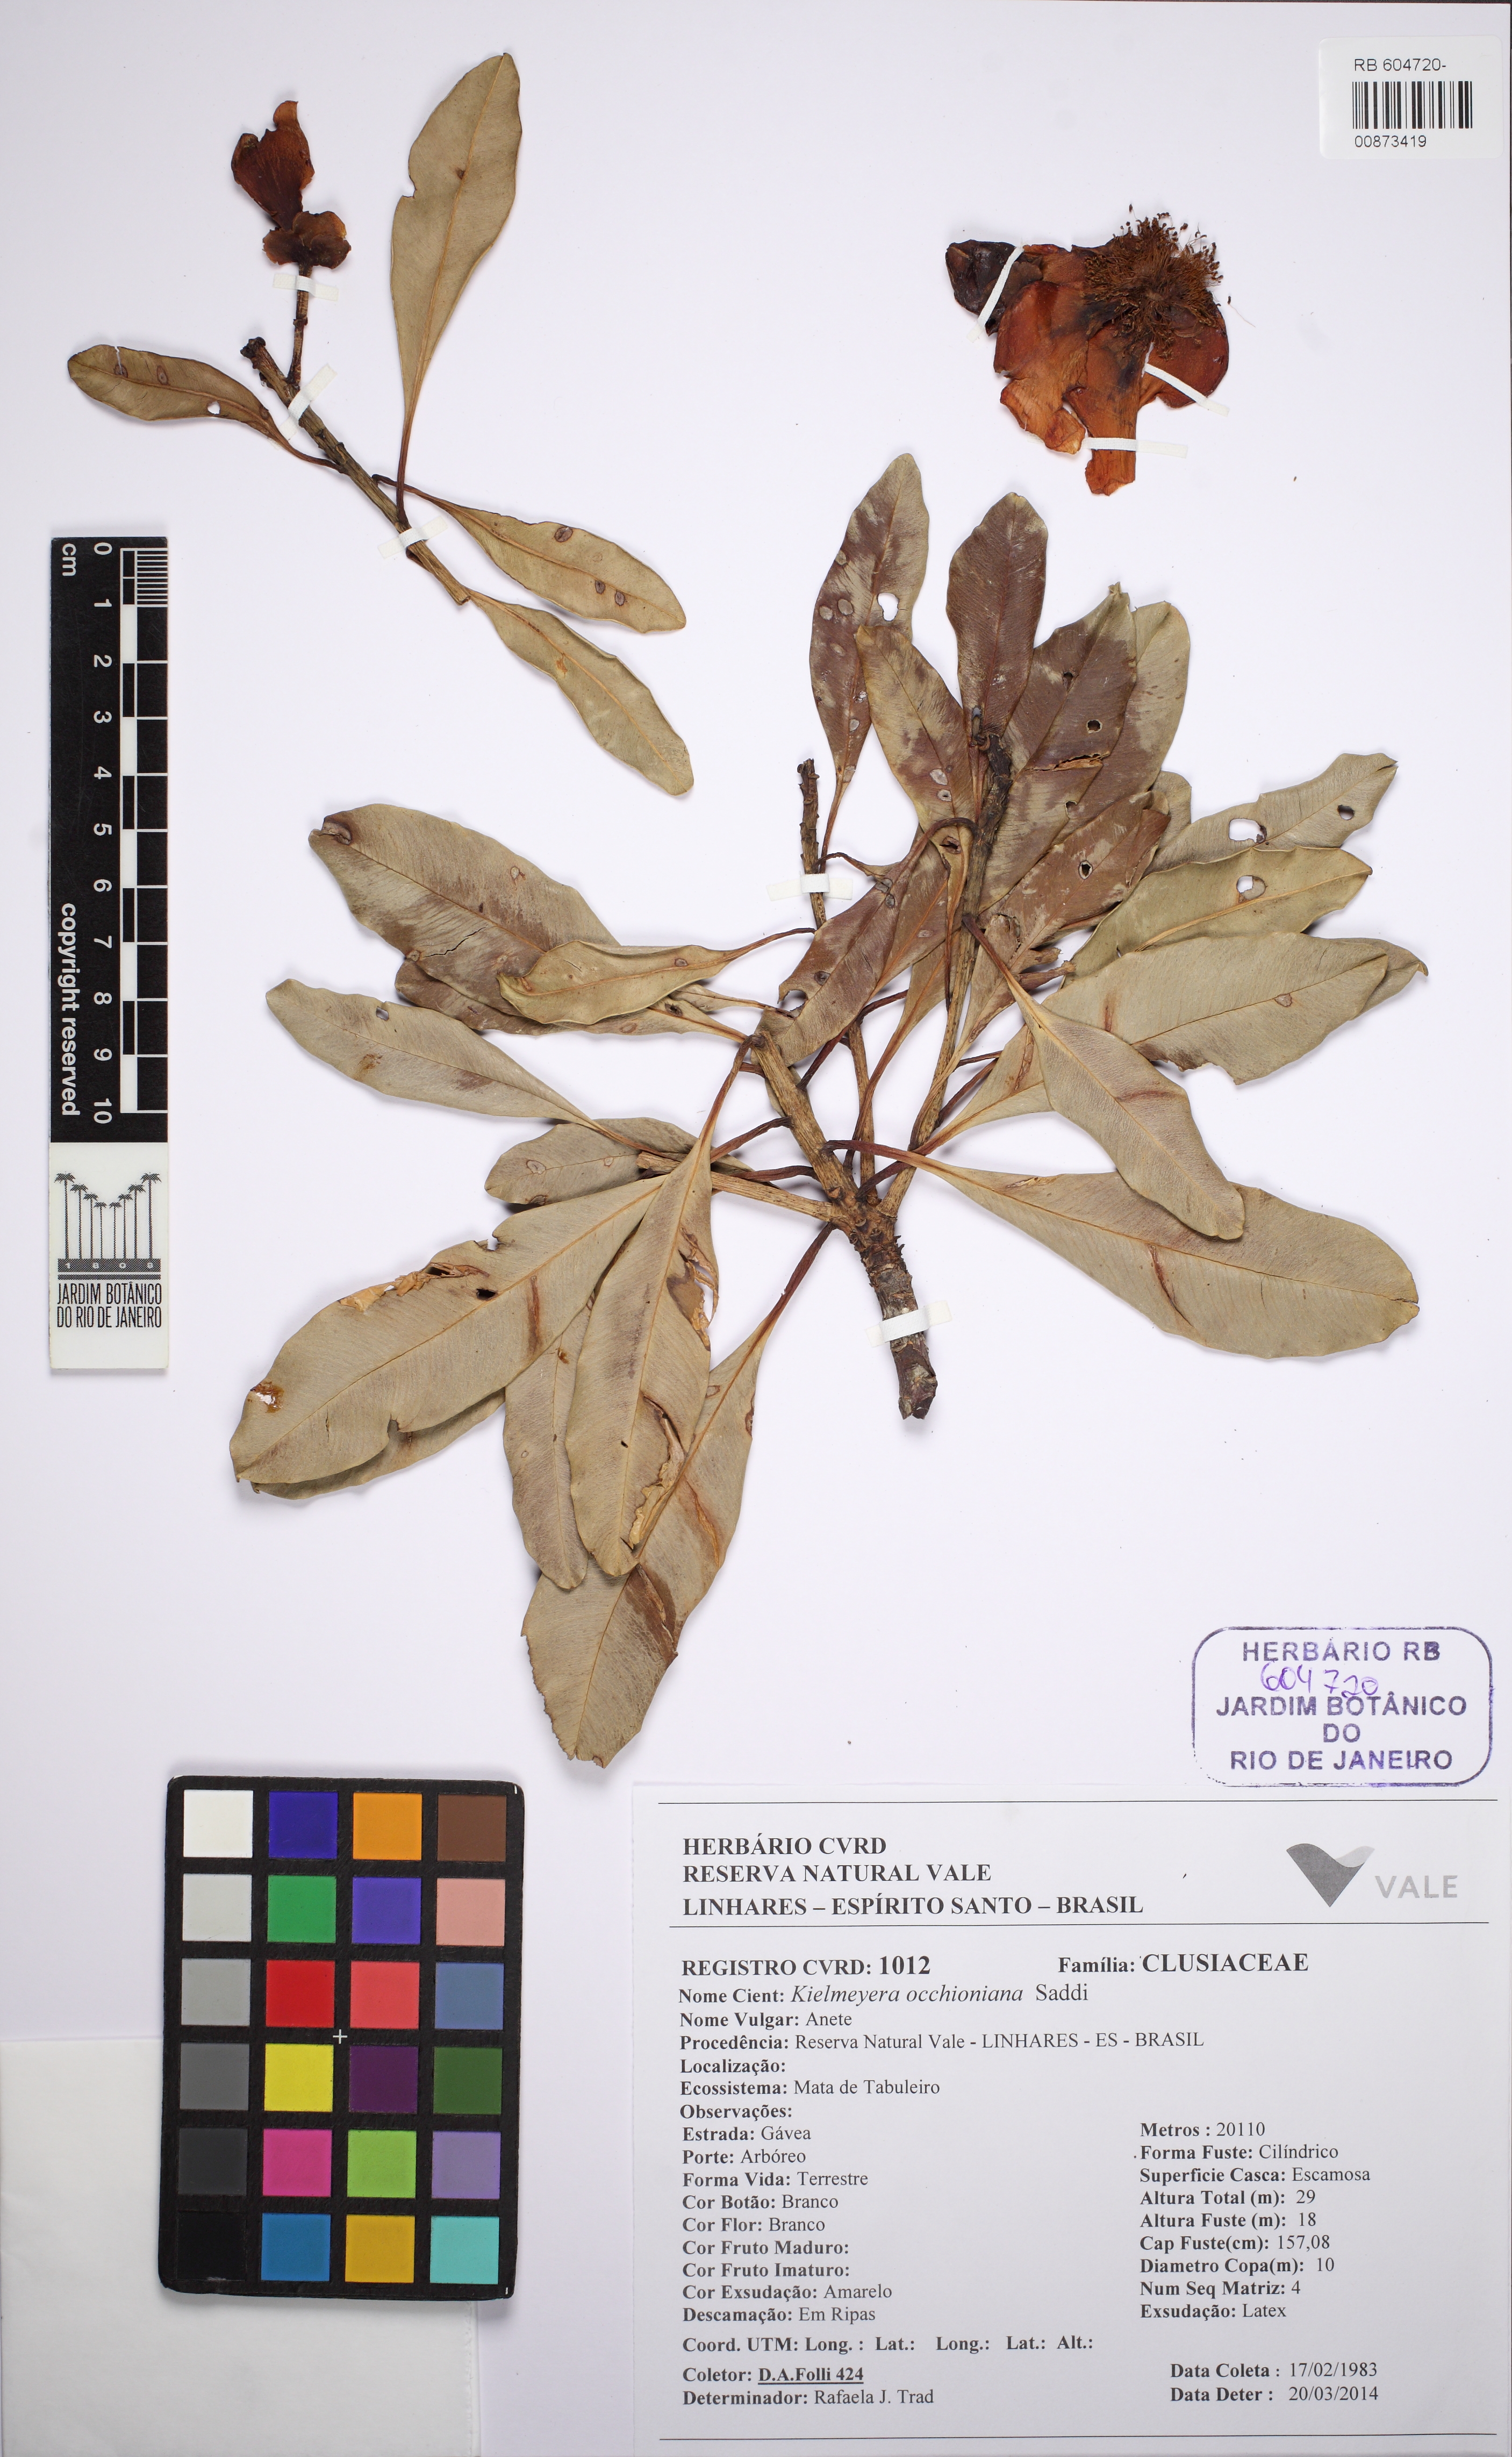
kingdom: Plantae
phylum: Tracheophyta
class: Magnoliopsida
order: Malpighiales
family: Calophyllaceae
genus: Kielmeyera
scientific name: Kielmeyera occhioniana
